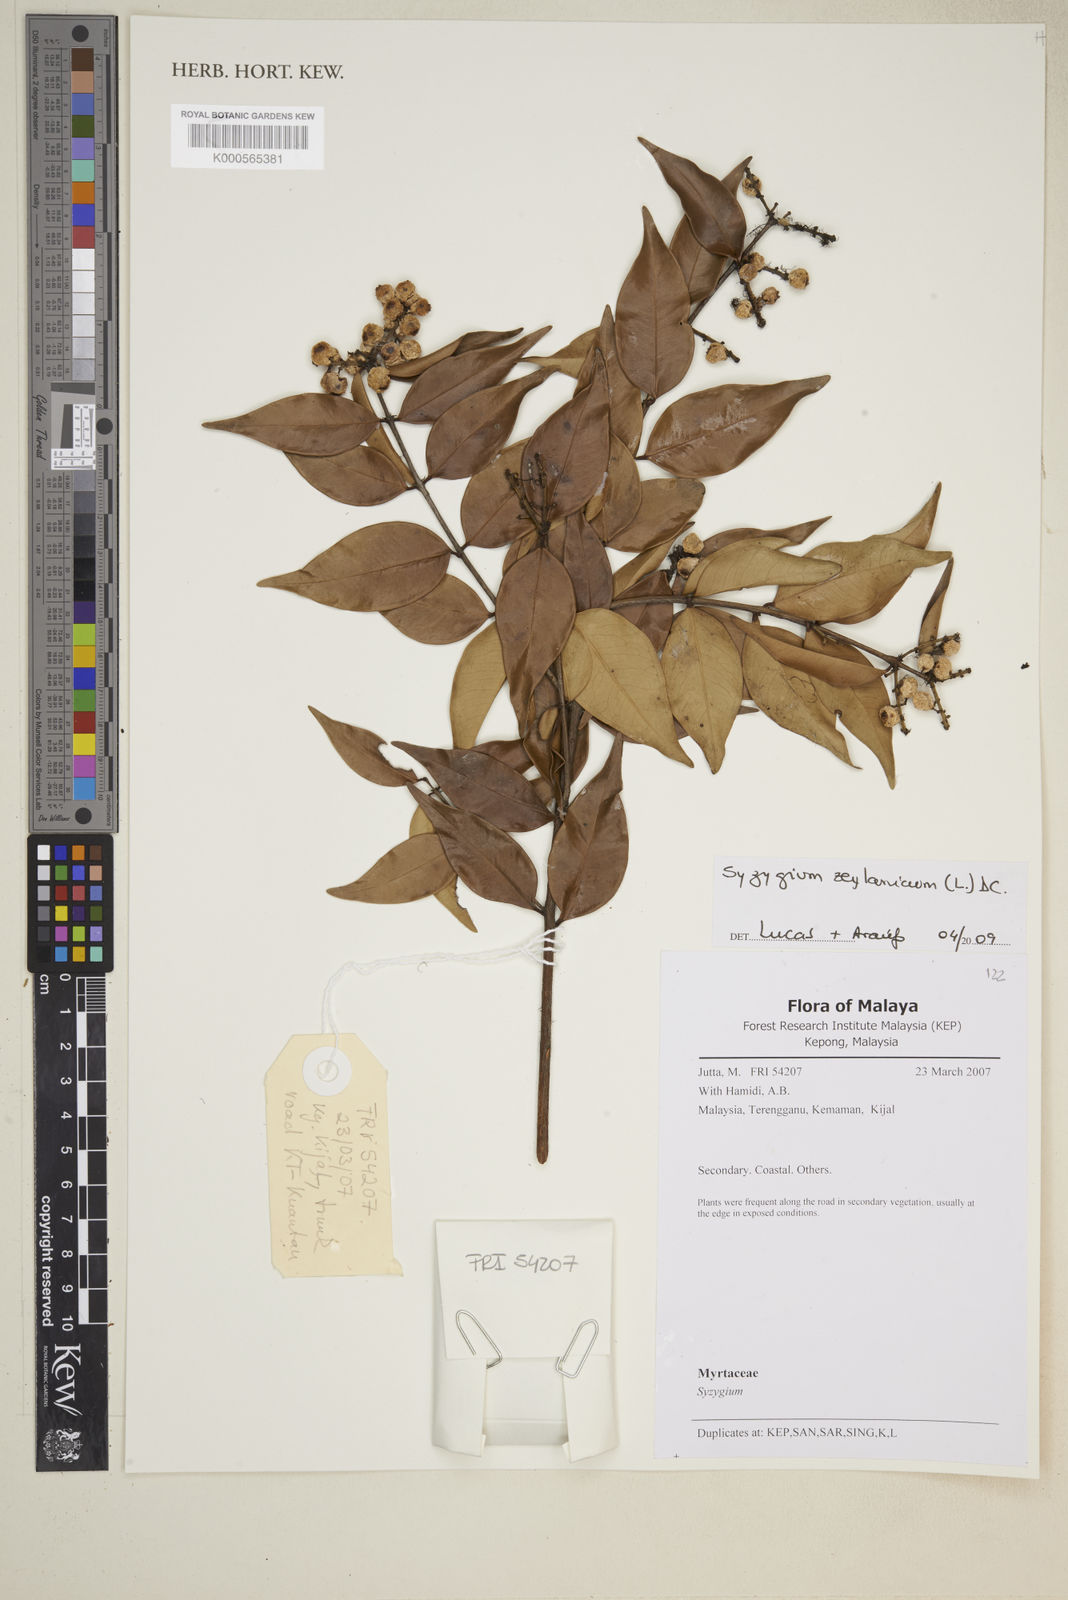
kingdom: Plantae
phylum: Tracheophyta
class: Magnoliopsida
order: Myrtales
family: Myrtaceae
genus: Syzygium
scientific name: Syzygium zeylanicum
